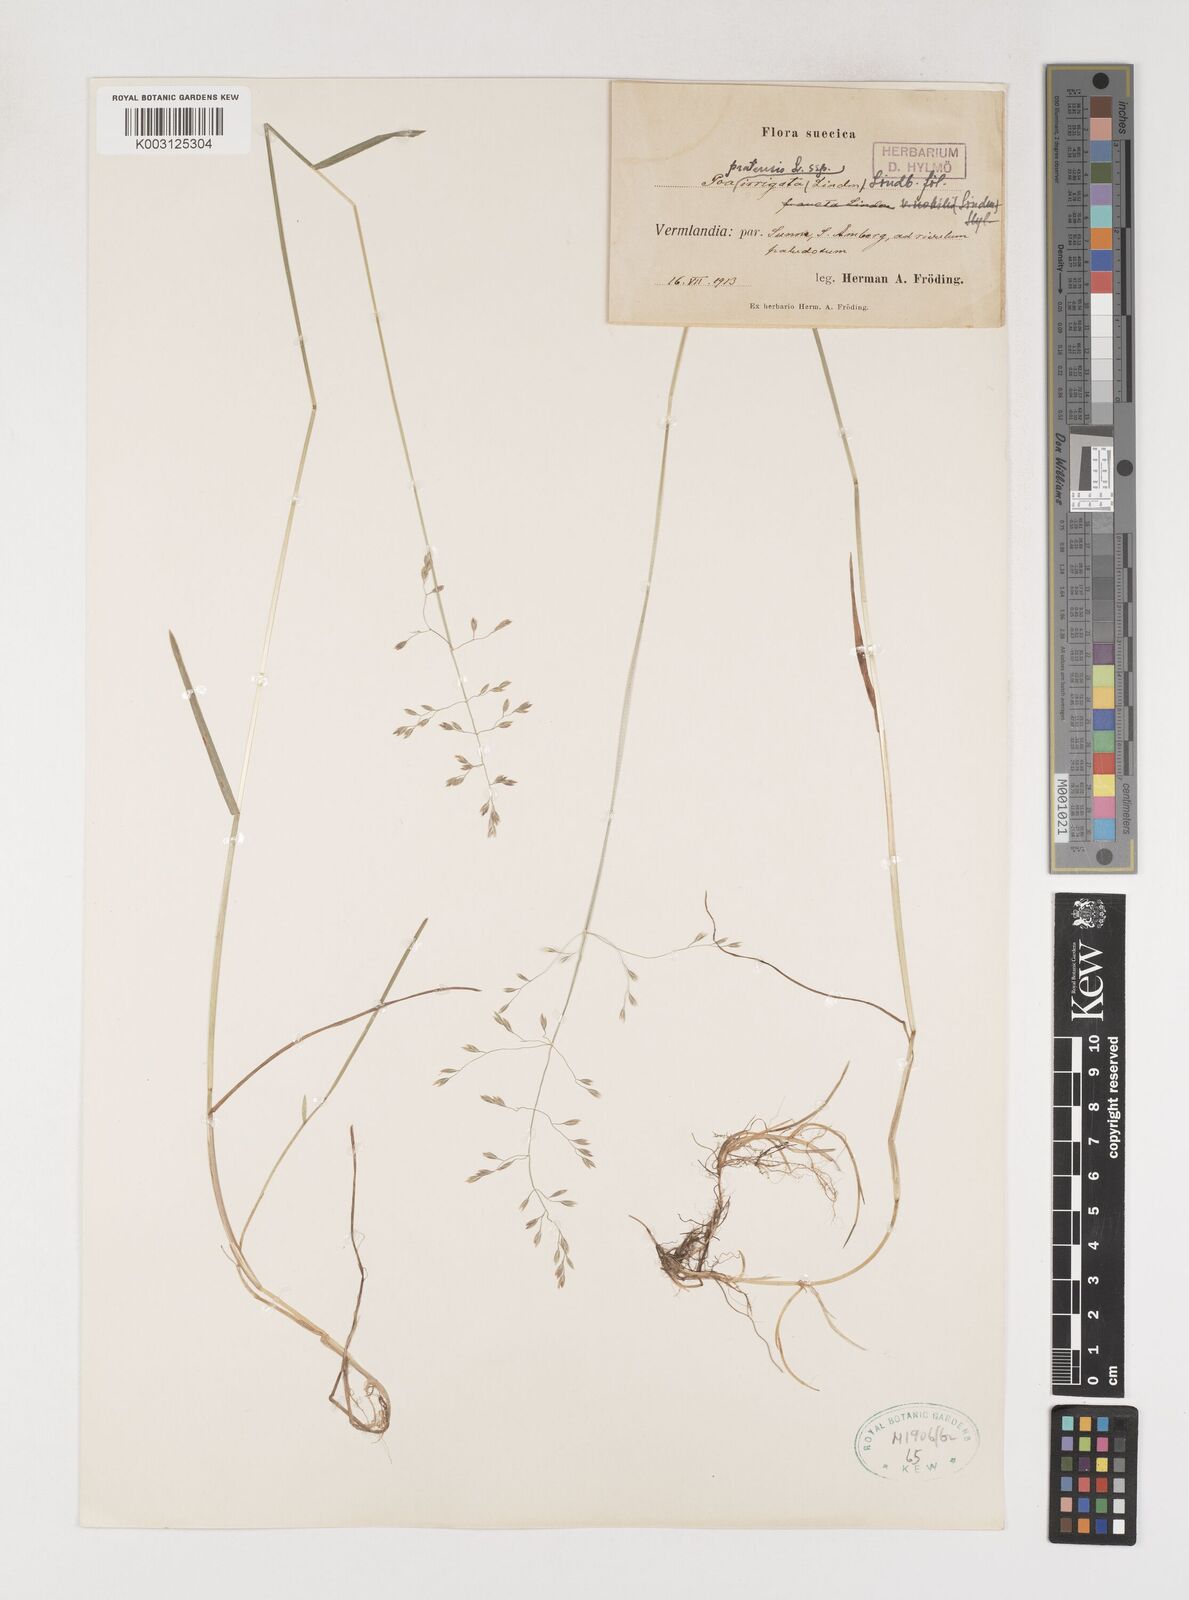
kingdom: Plantae
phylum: Tracheophyta
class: Liliopsida
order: Poales
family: Poaceae
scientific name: Poaceae
